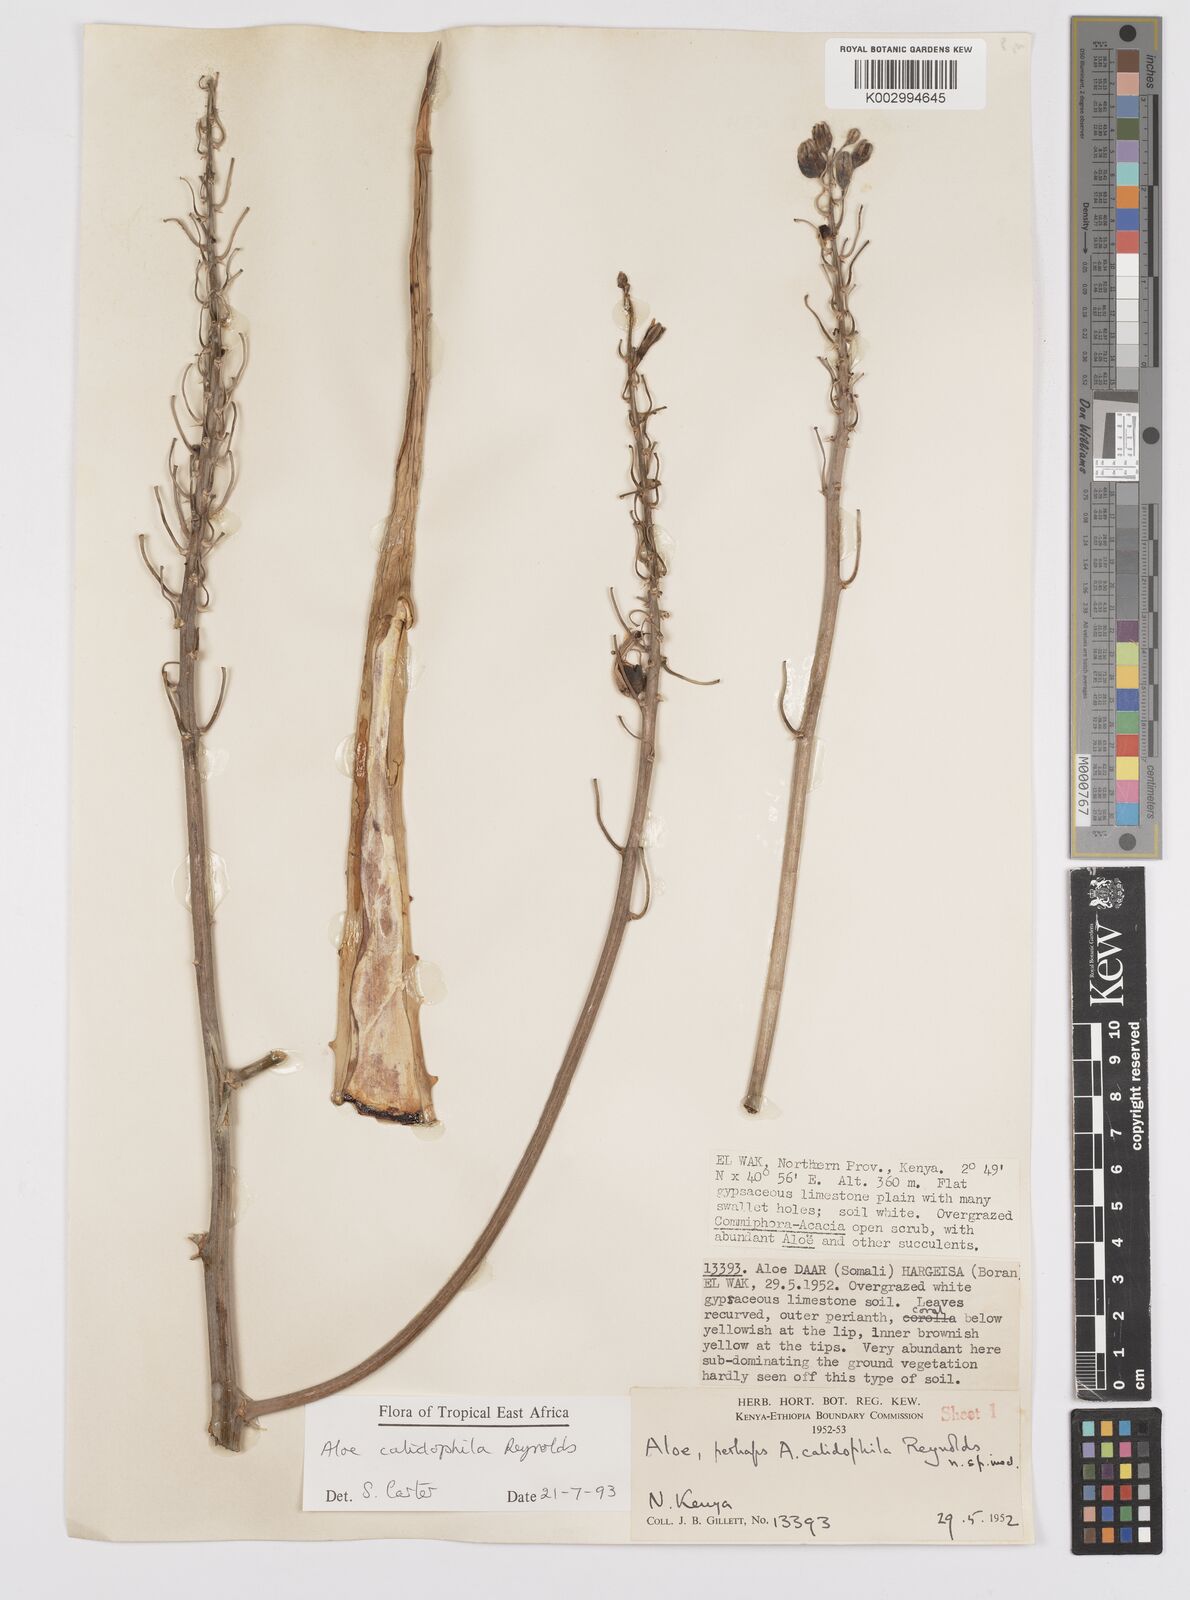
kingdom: Plantae
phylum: Tracheophyta
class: Liliopsida
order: Asparagales
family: Asphodelaceae
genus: Aloe
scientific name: Aloe calidophila
